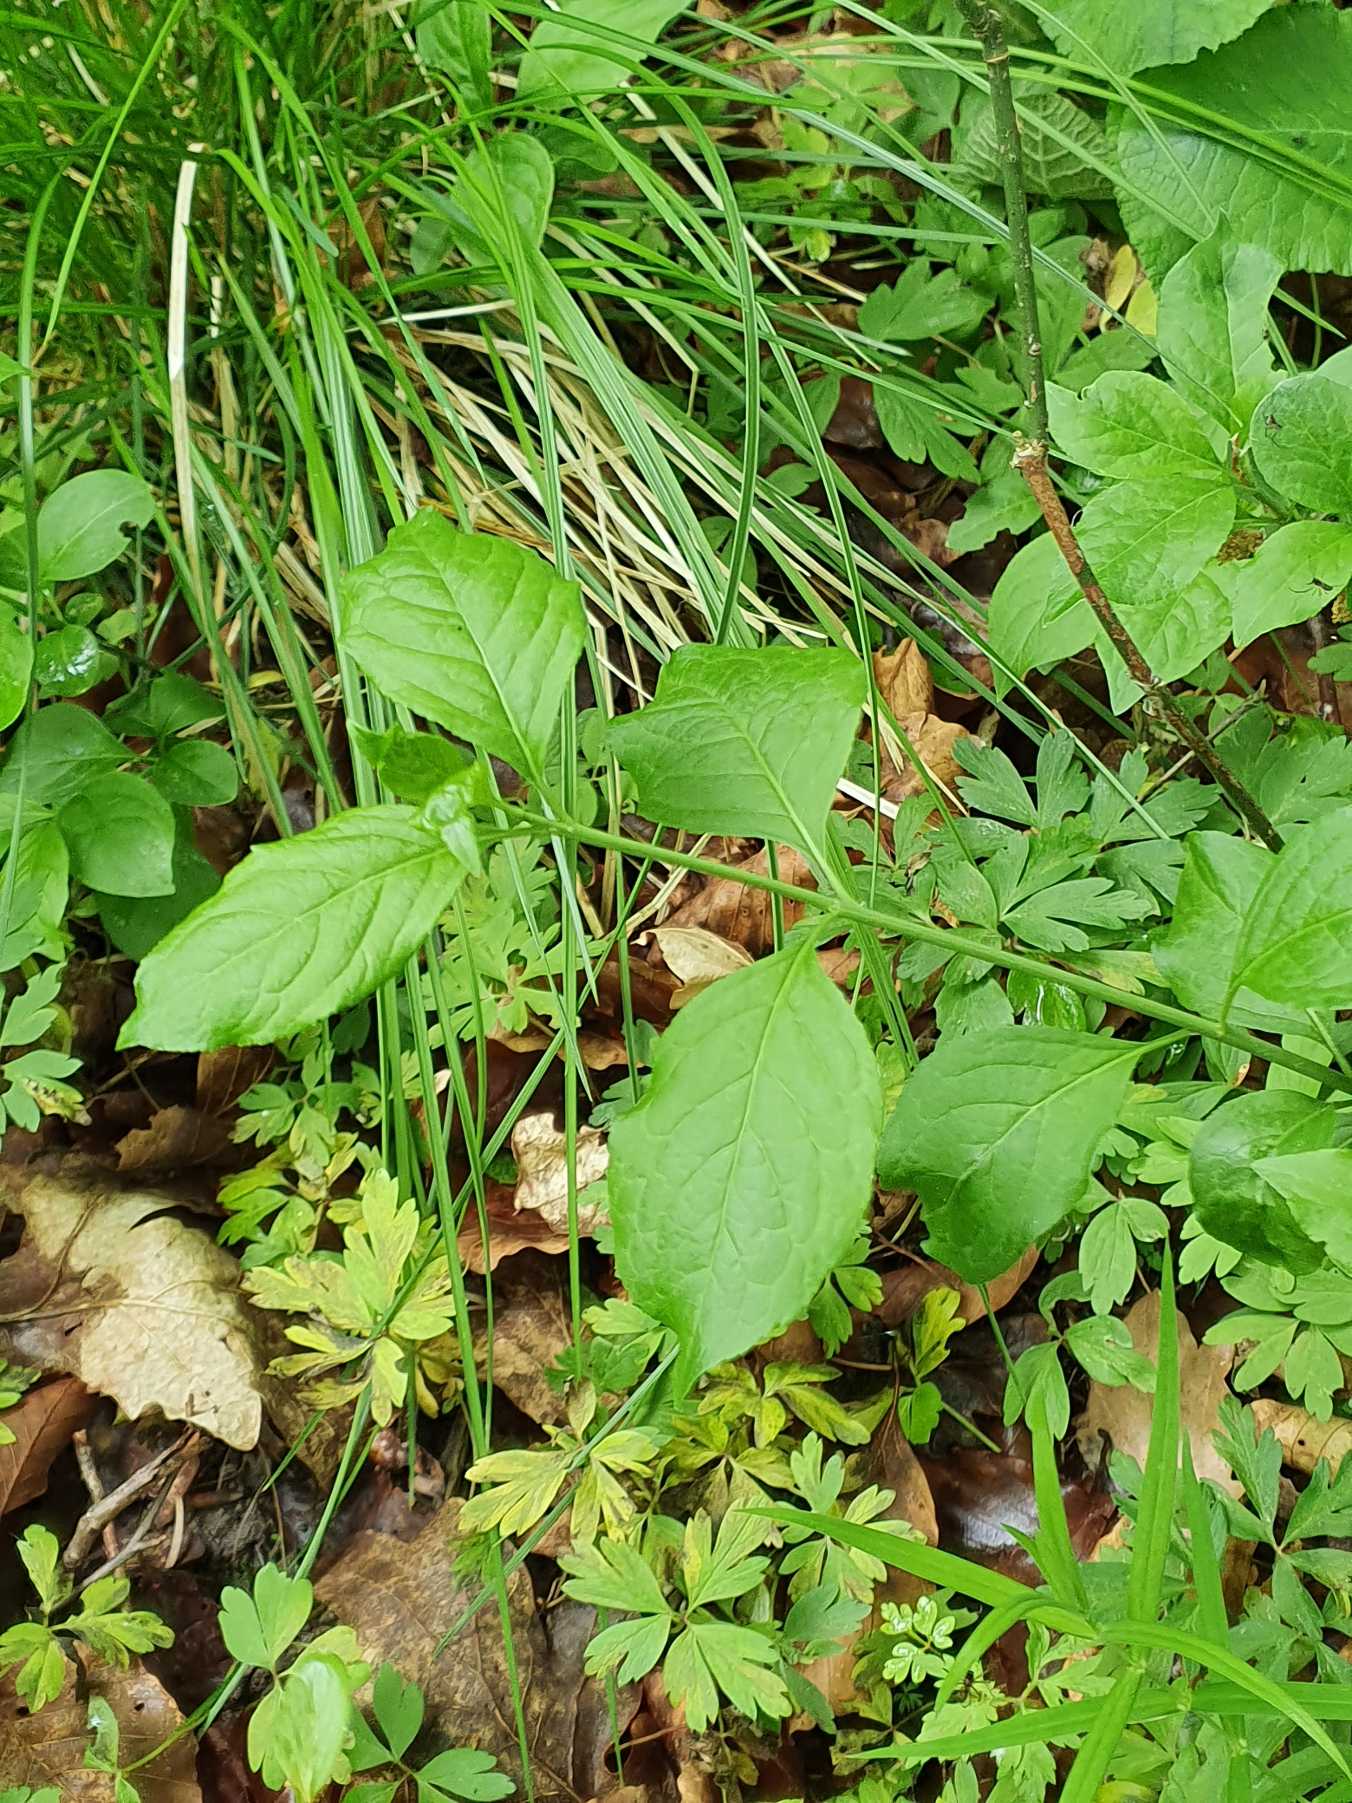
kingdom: Plantae
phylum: Tracheophyta
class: Magnoliopsida
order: Celastrales
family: Celastraceae
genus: Euonymus
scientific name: Euonymus europaeus
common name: Benved
